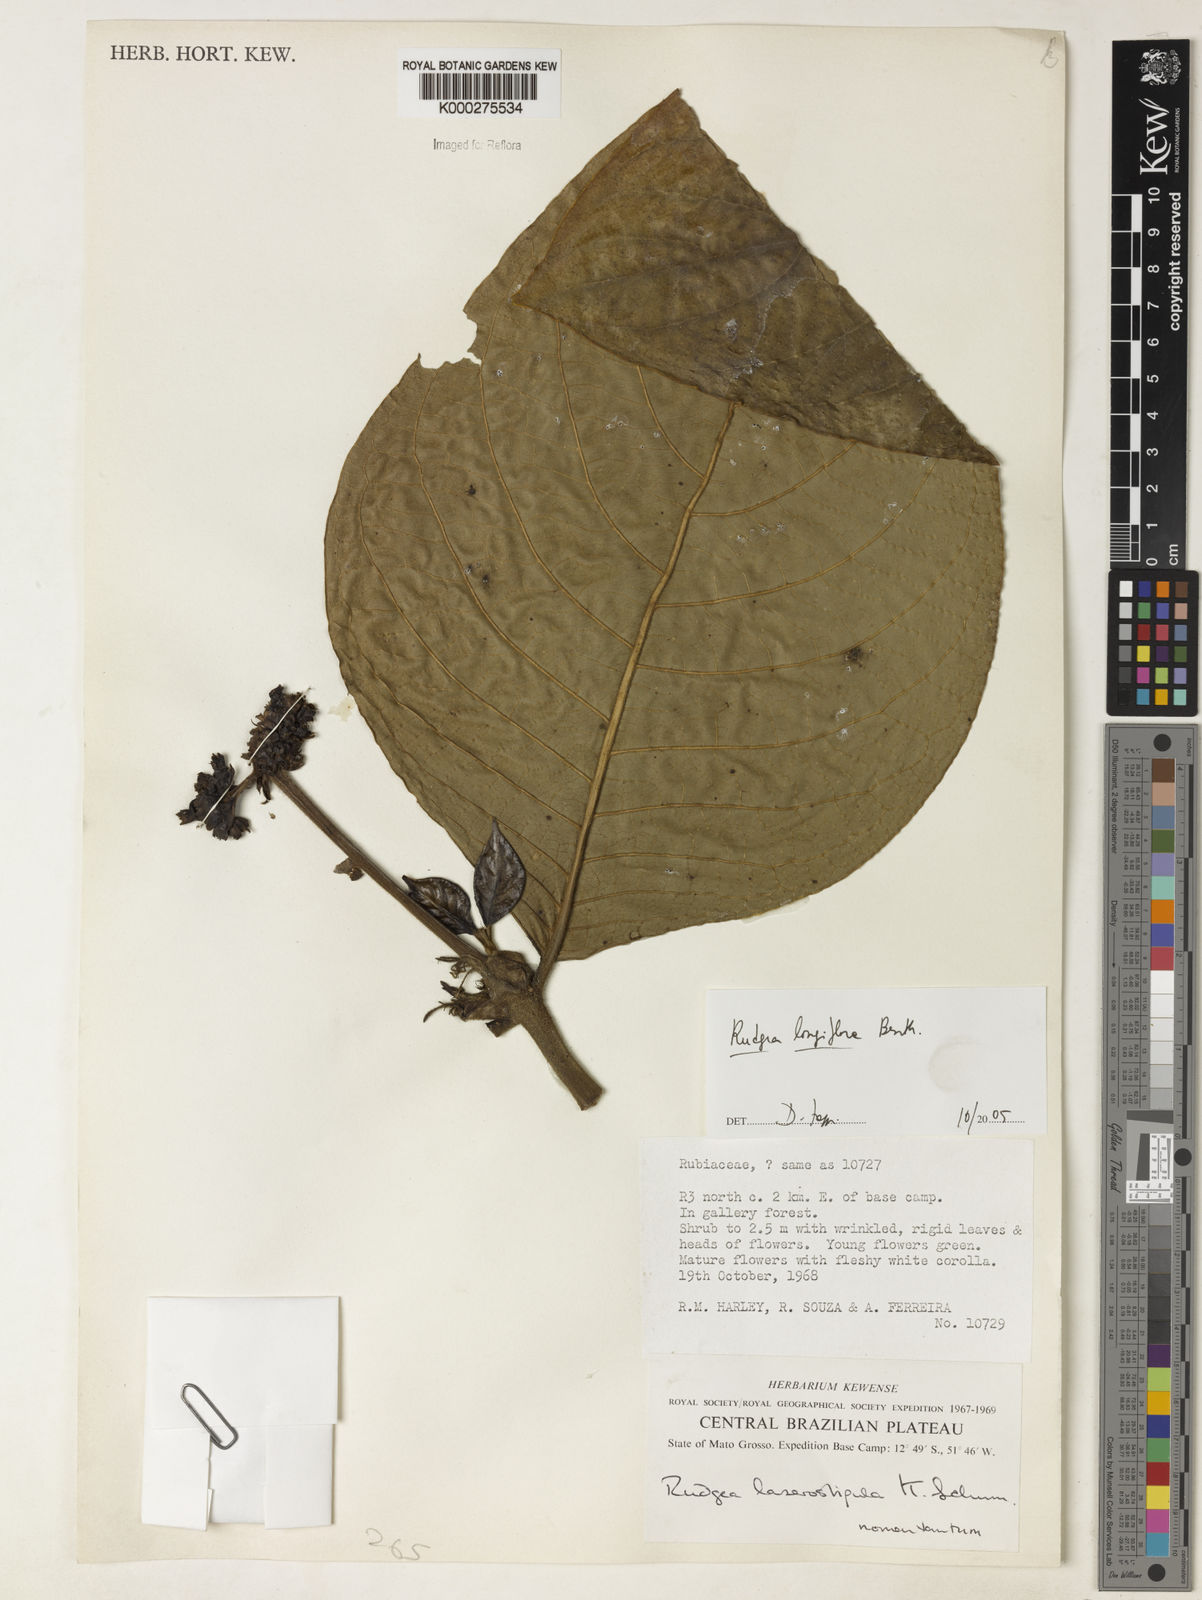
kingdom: Plantae
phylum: Tracheophyta
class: Magnoliopsida
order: Gentianales
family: Rubiaceae
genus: Rudgea
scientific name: Rudgea longiflora
